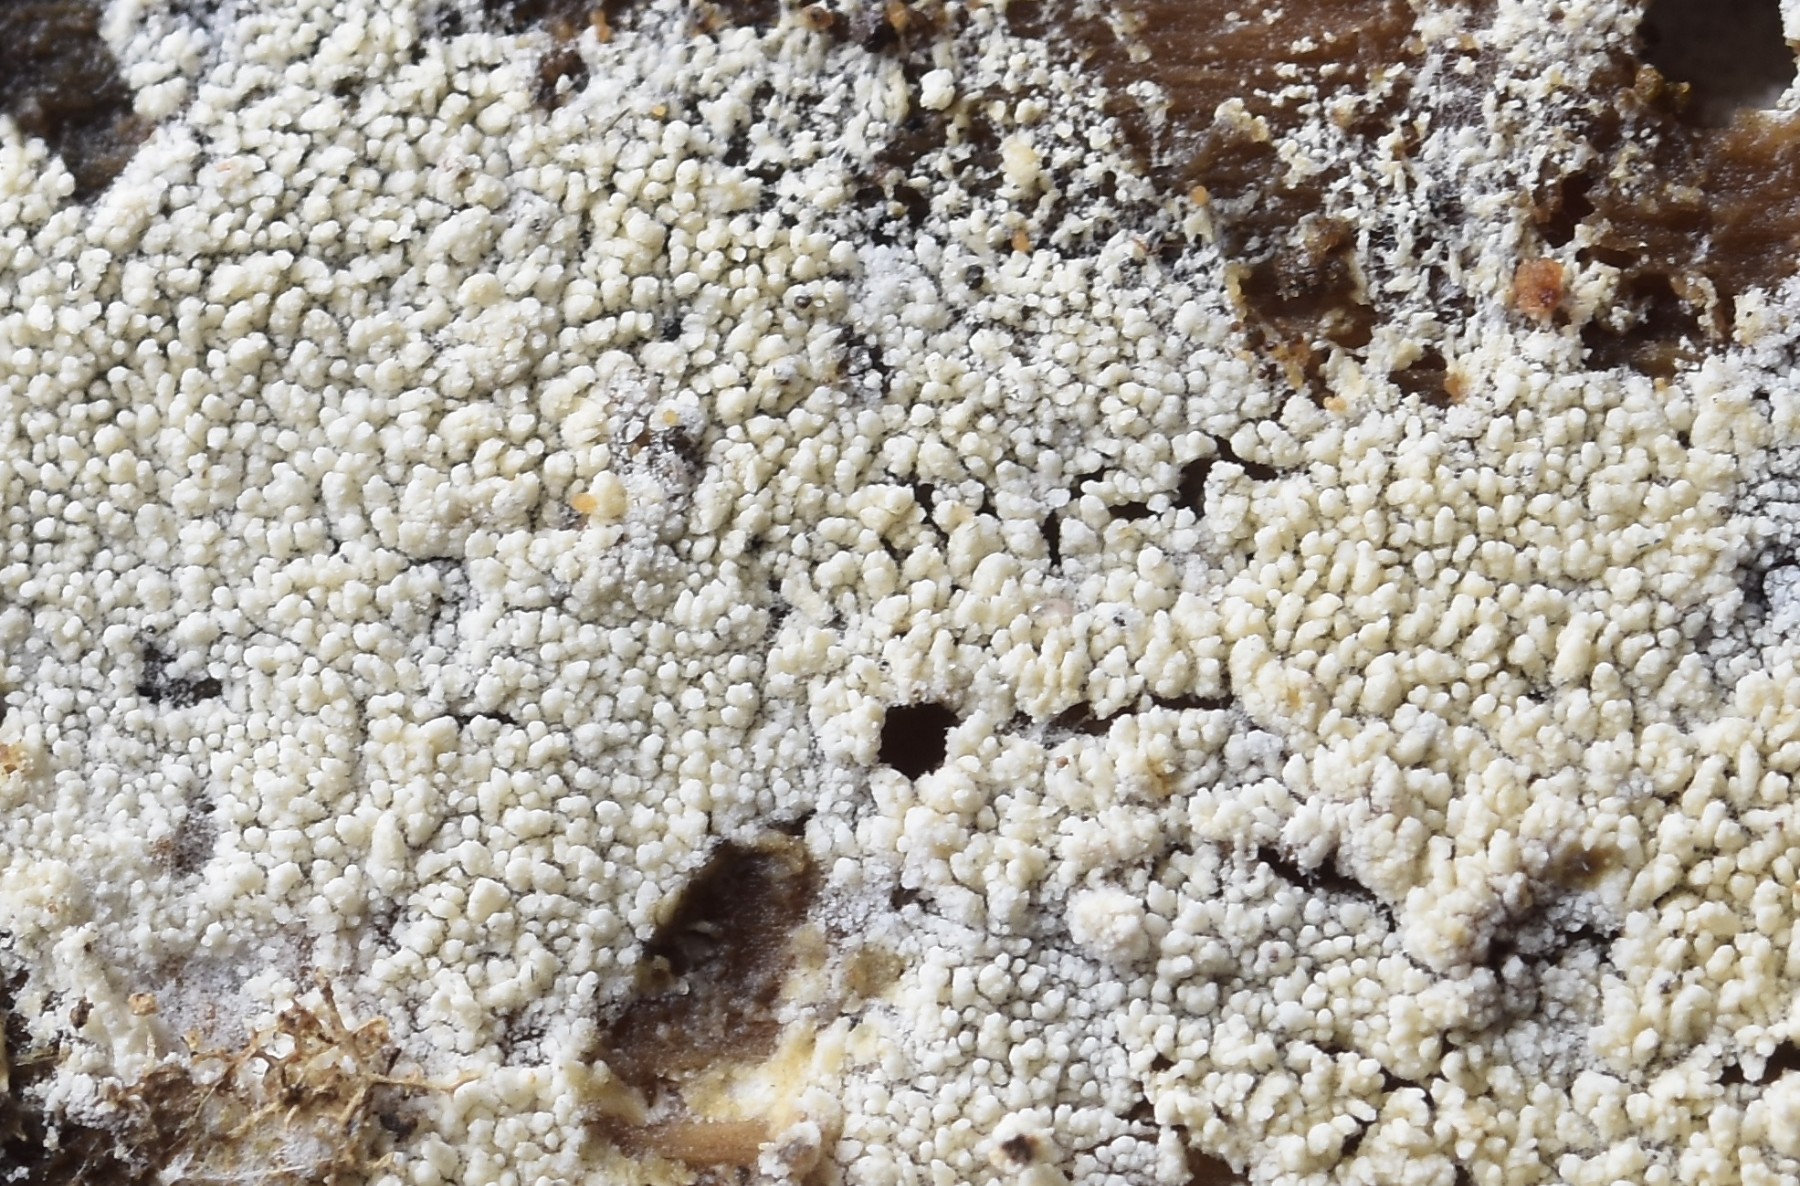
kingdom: Fungi
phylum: Basidiomycota
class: Agaricomycetes
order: Trechisporales
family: Sistotremataceae
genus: Trechispora
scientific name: Trechispora stevensonii
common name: støvende vathinde
